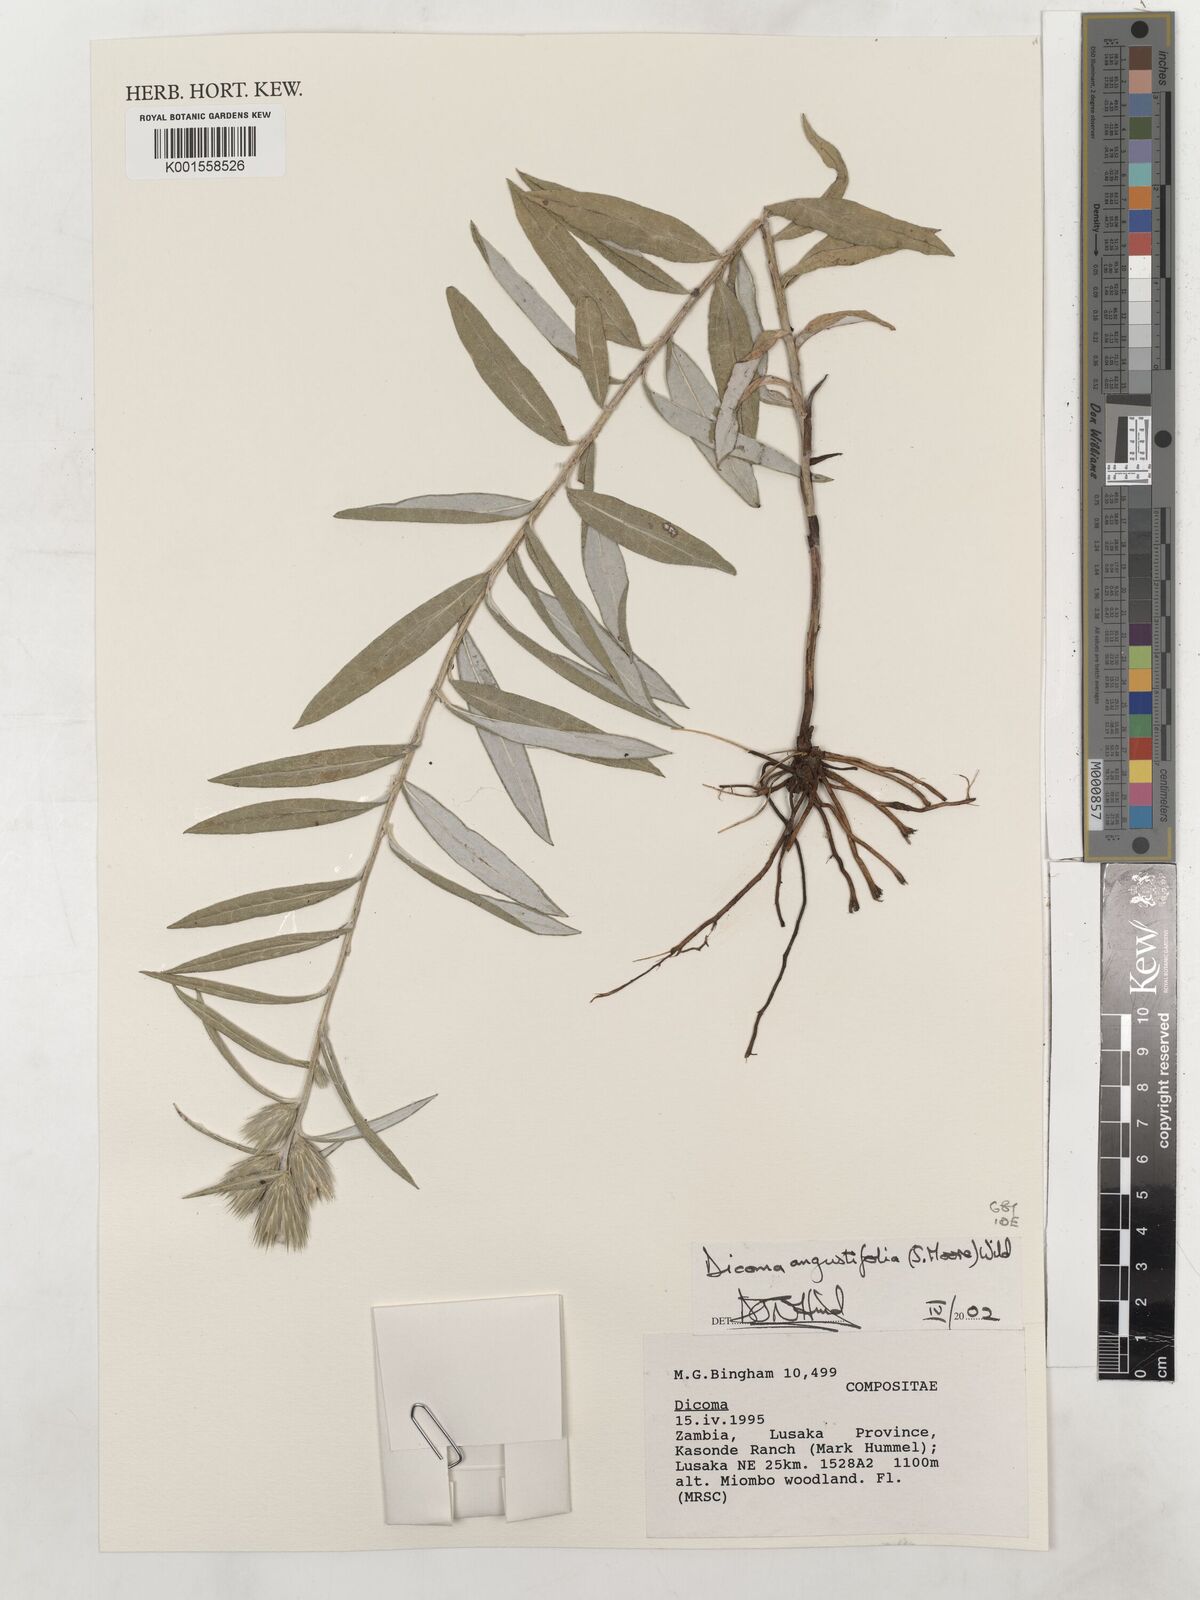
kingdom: Plantae
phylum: Tracheophyta
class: Magnoliopsida
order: Asterales
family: Asteraceae
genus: Macledium
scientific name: Macledium poggei
